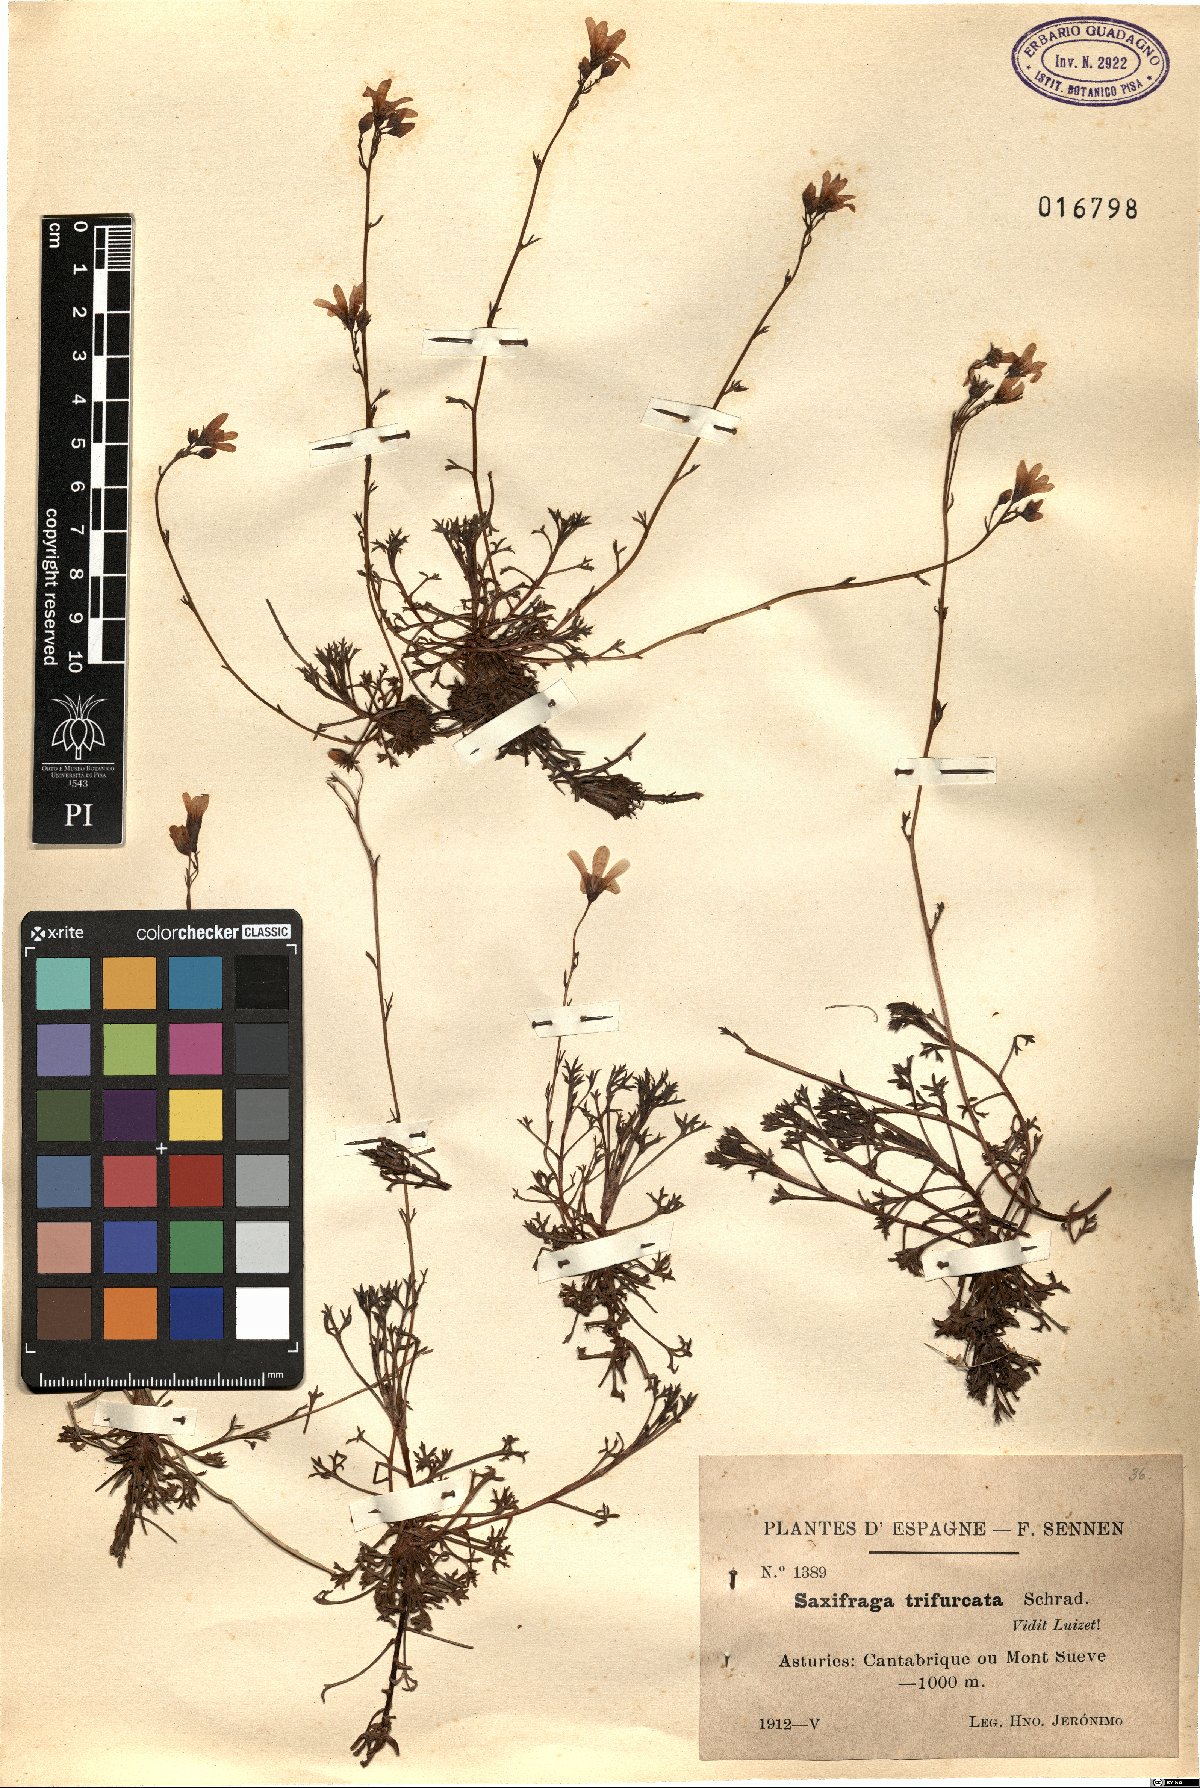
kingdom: Plantae
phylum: Tracheophyta
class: Magnoliopsida
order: Saxifragales
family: Saxifragaceae
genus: Saxifraga
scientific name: Saxifraga trifurcata
